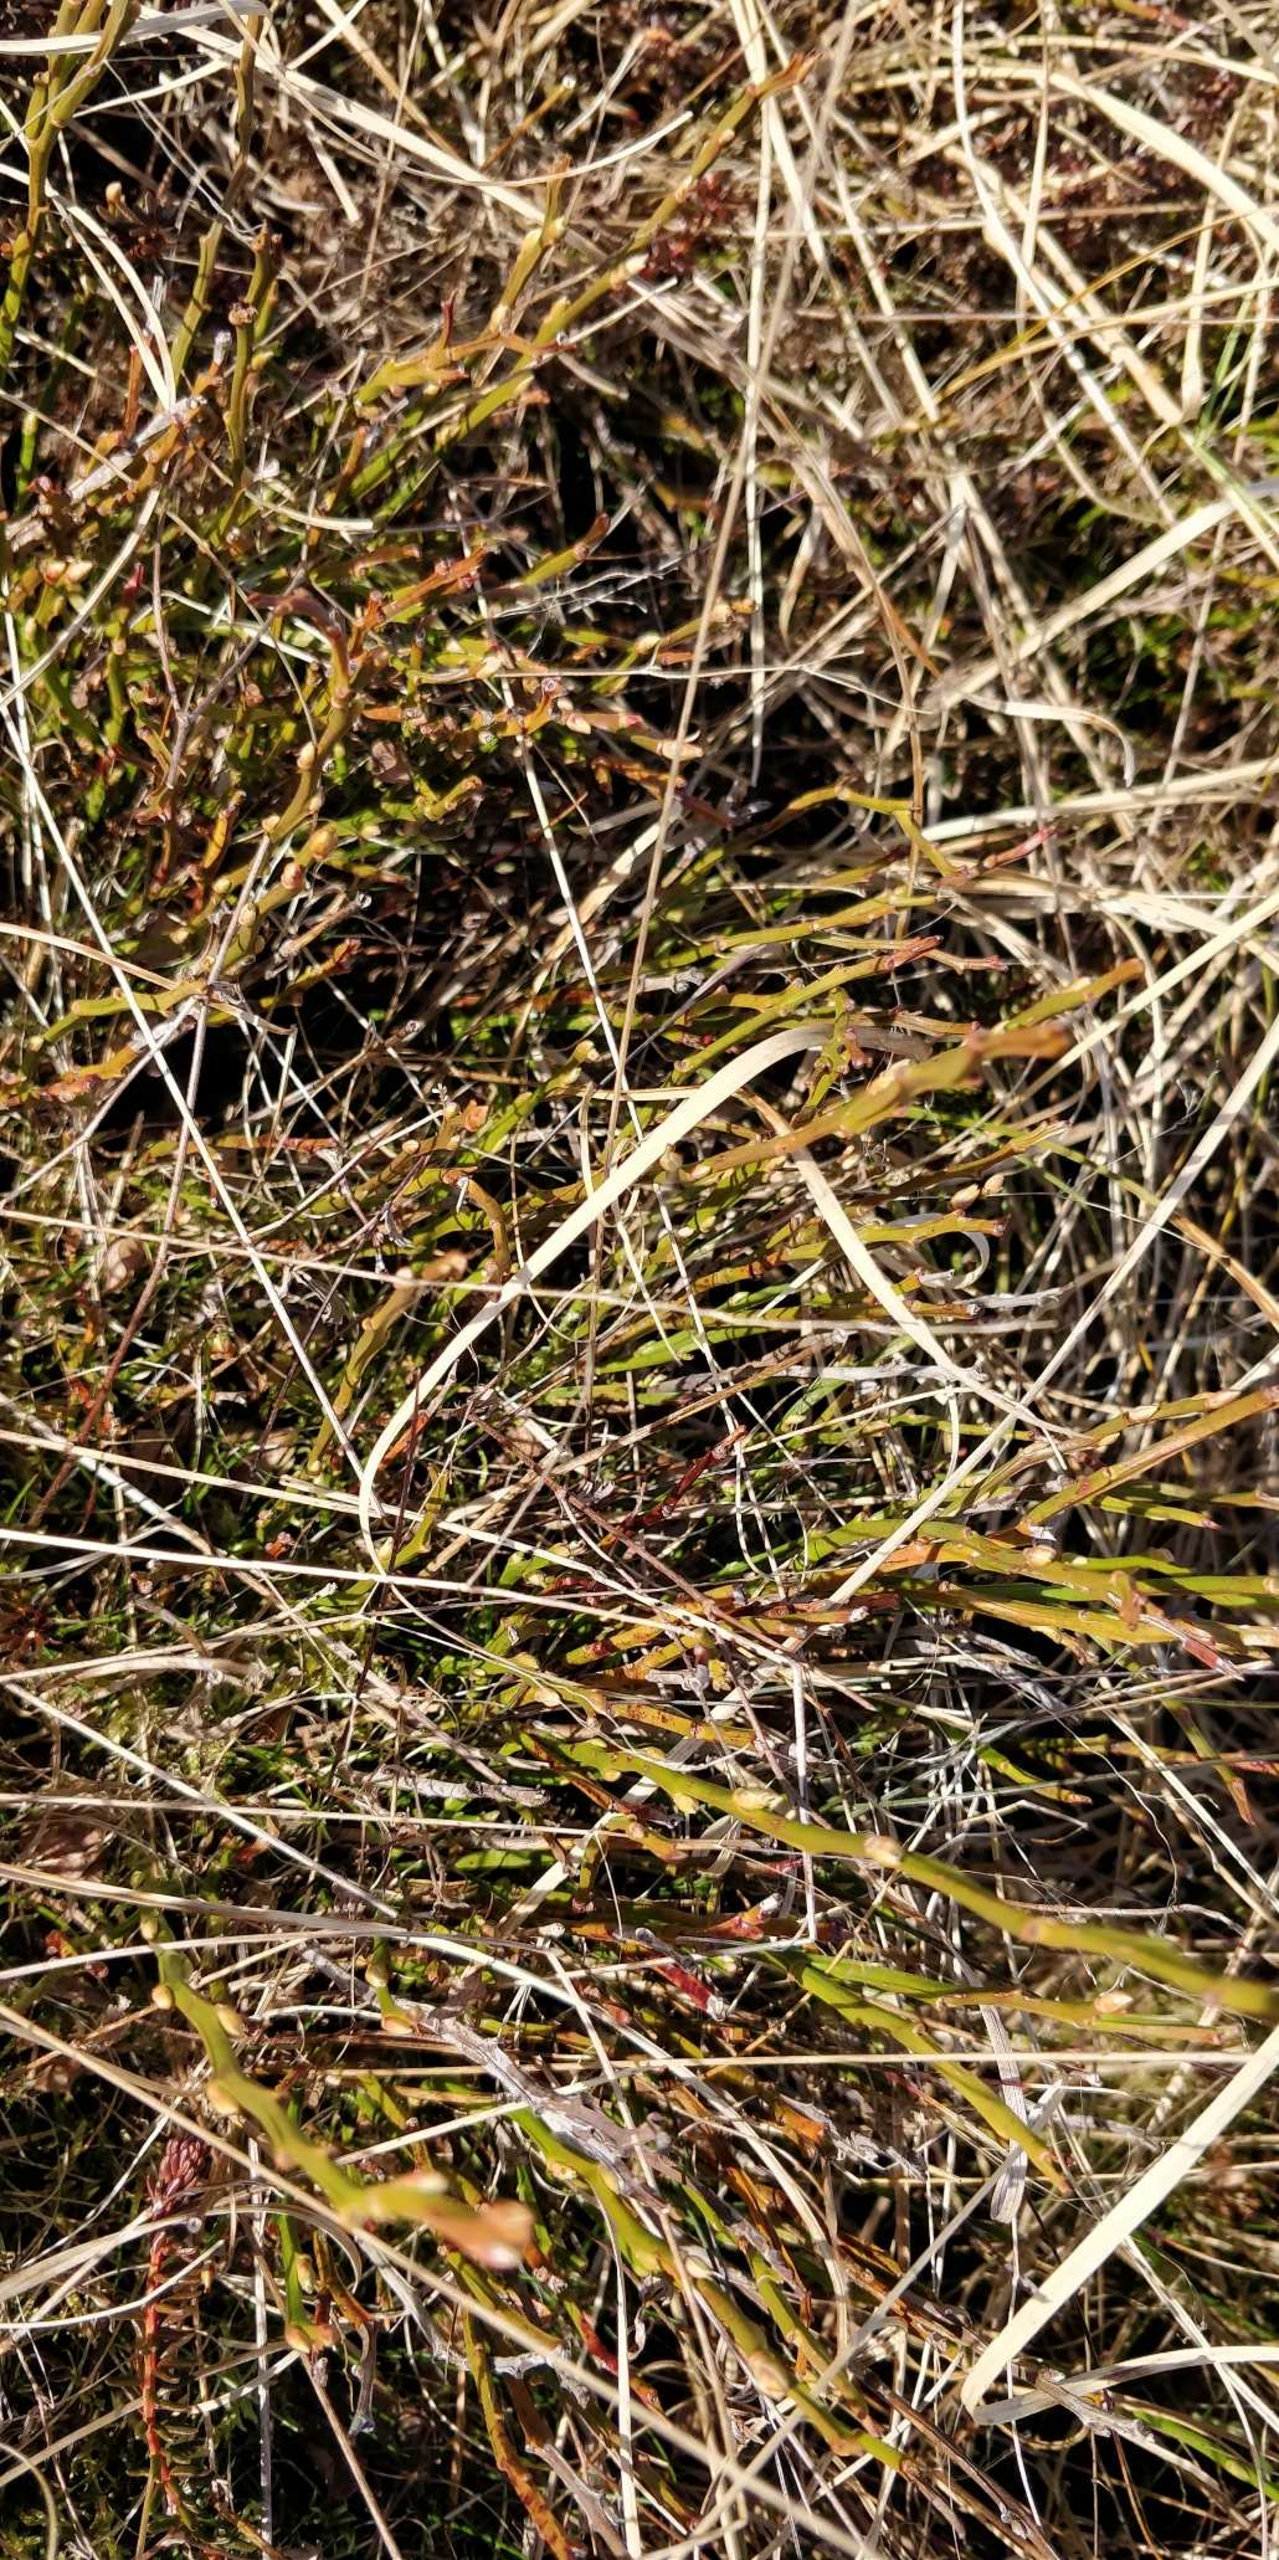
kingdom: Plantae
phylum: Tracheophyta
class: Magnoliopsida
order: Ericales
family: Ericaceae
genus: Vaccinium
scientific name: Vaccinium myrtillus
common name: Blåbær
